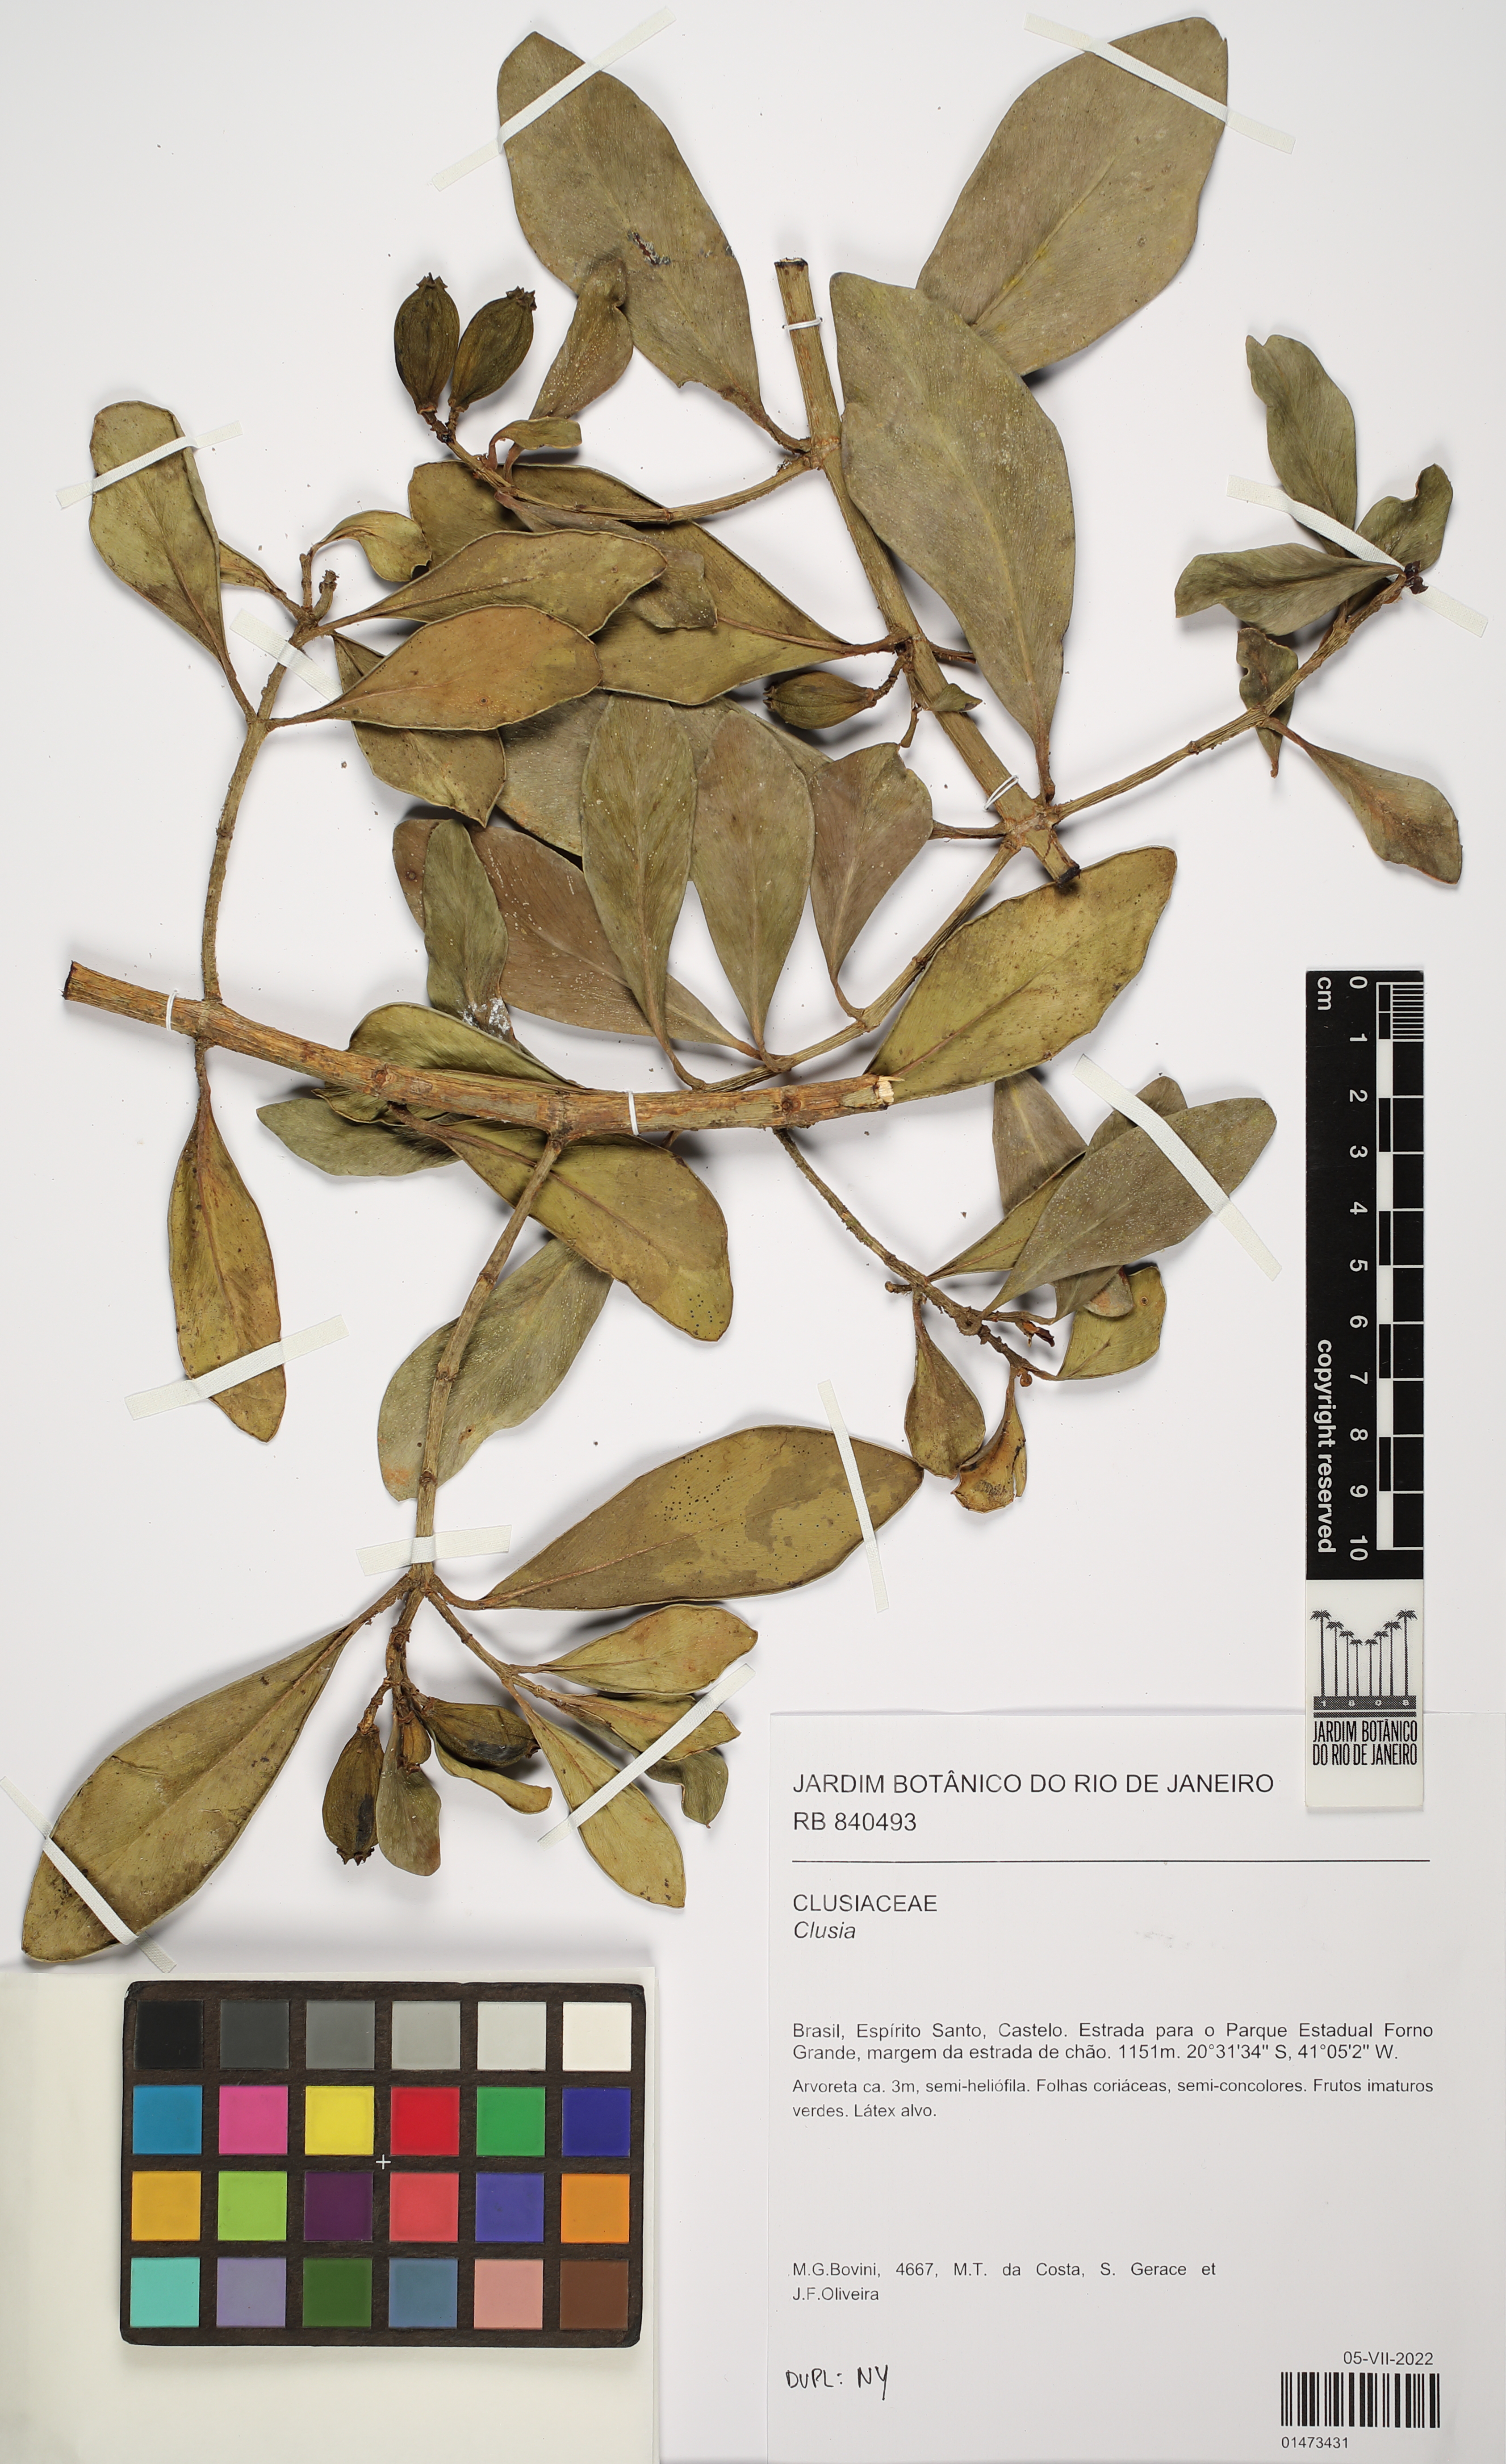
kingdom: Plantae
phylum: Tracheophyta
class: Magnoliopsida
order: Malpighiales
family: Clusiaceae
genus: Clusia
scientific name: Clusia
